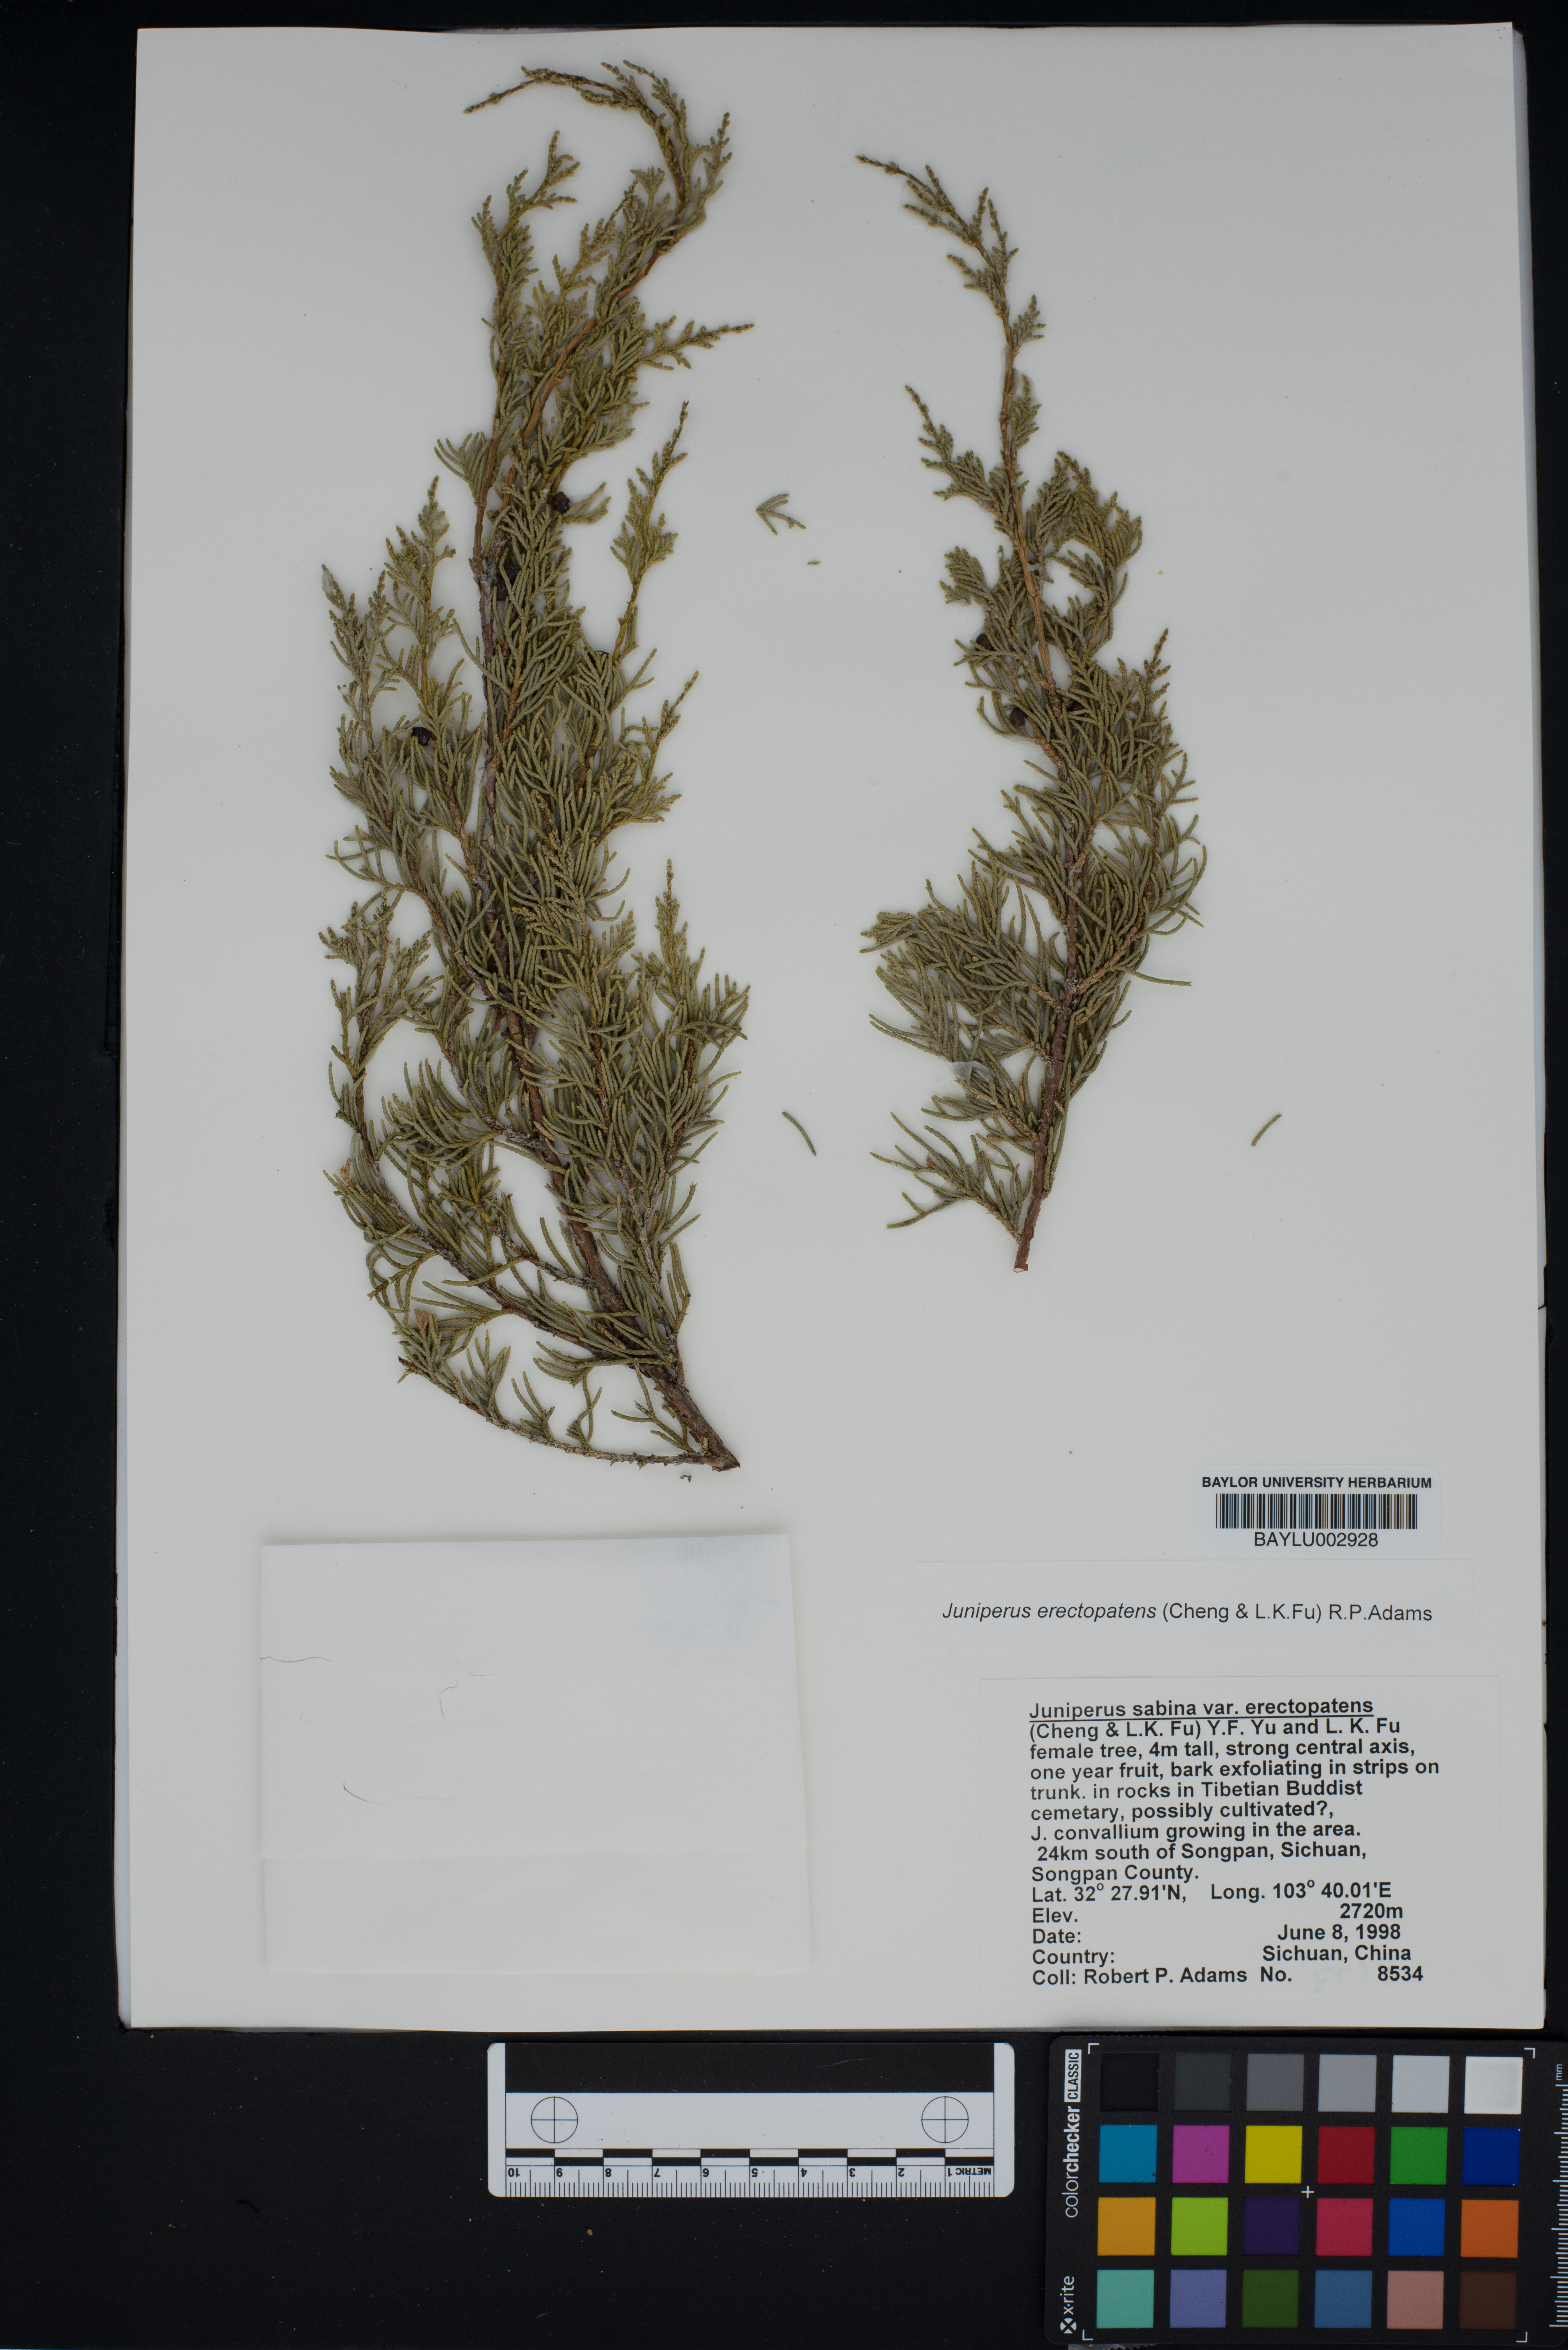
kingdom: Plantae
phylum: Tracheophyta
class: Pinopsida
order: Pinales
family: Cupressaceae
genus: Juniperus
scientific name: Juniperus chinensis
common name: Chinese juniper
